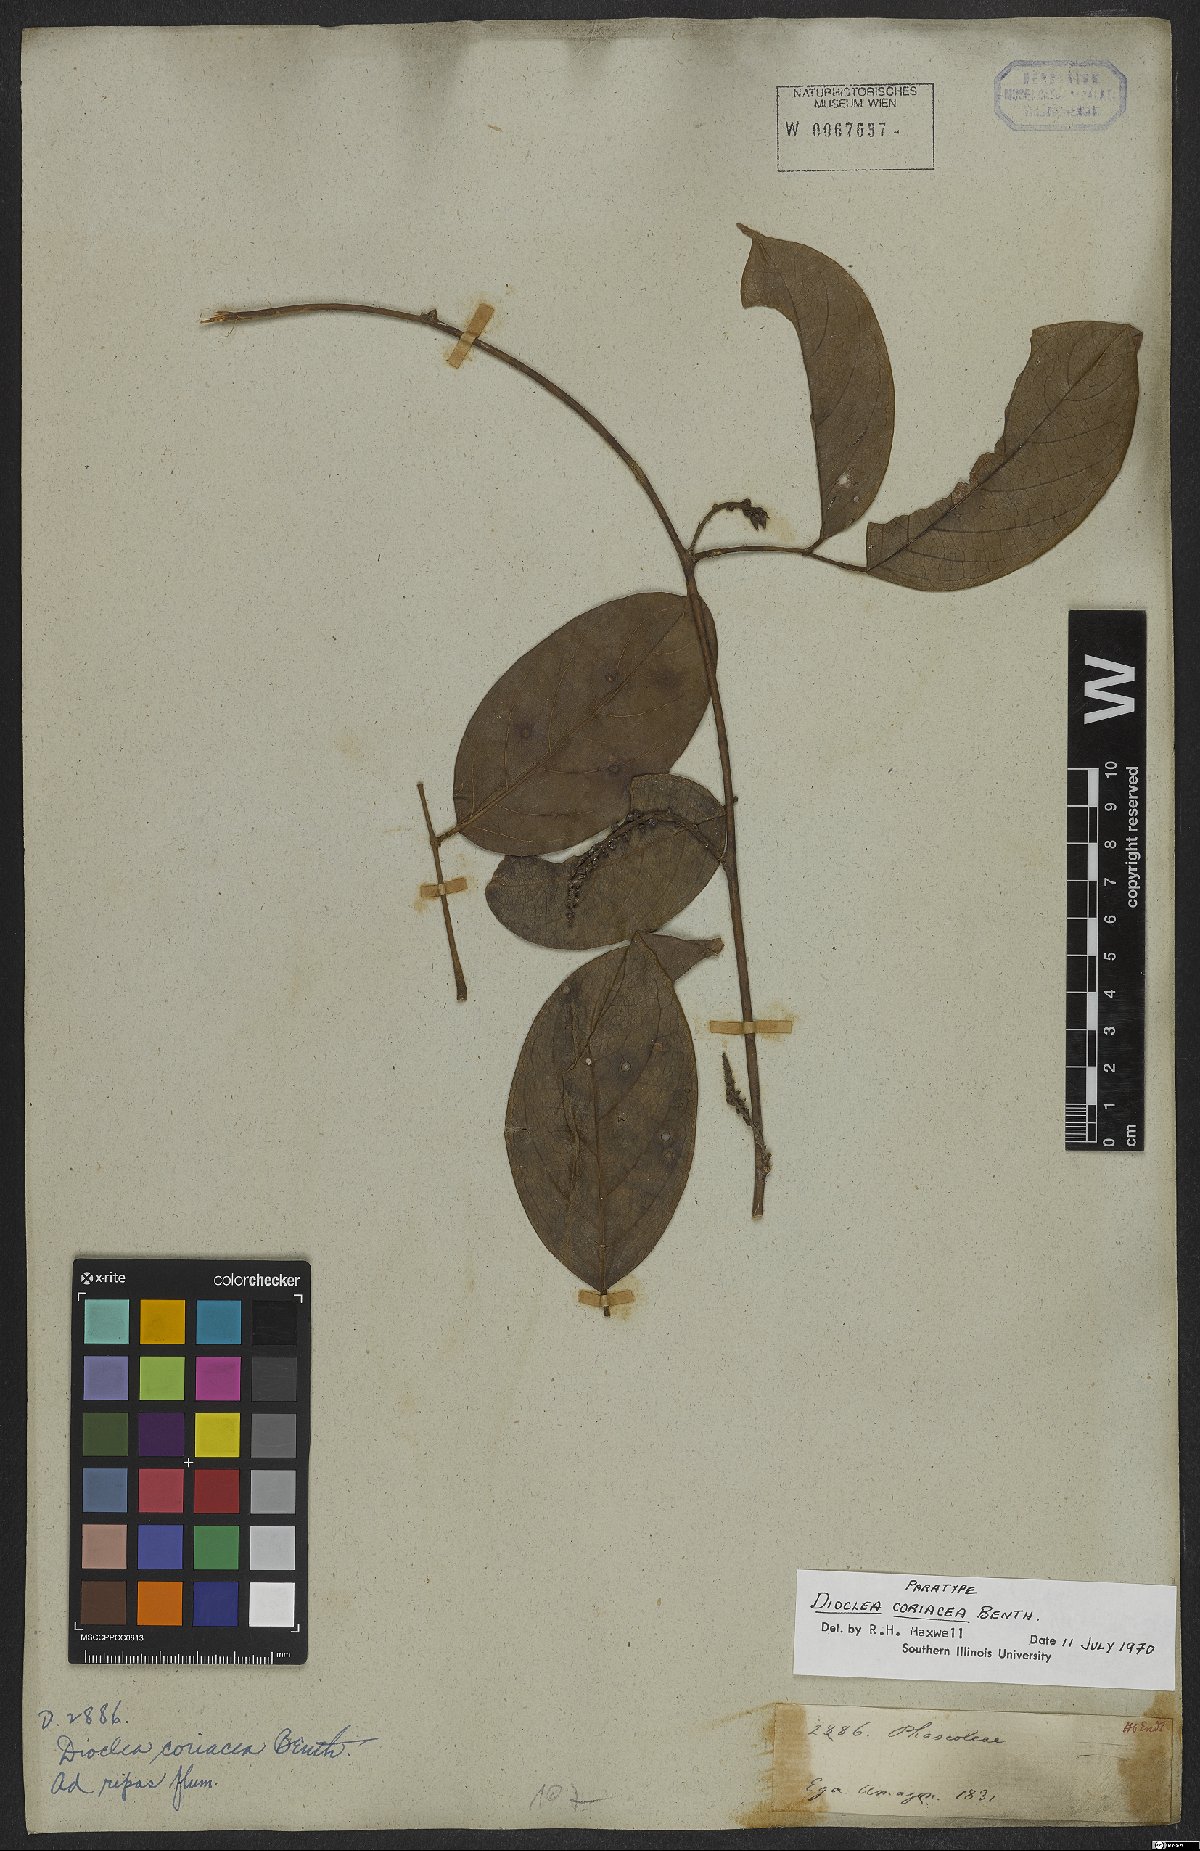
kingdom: Plantae
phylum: Tracheophyta
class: Magnoliopsida
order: Fabales
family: Fabaceae
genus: Macropsychanthus
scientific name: Macropsychanthus coriaceus
